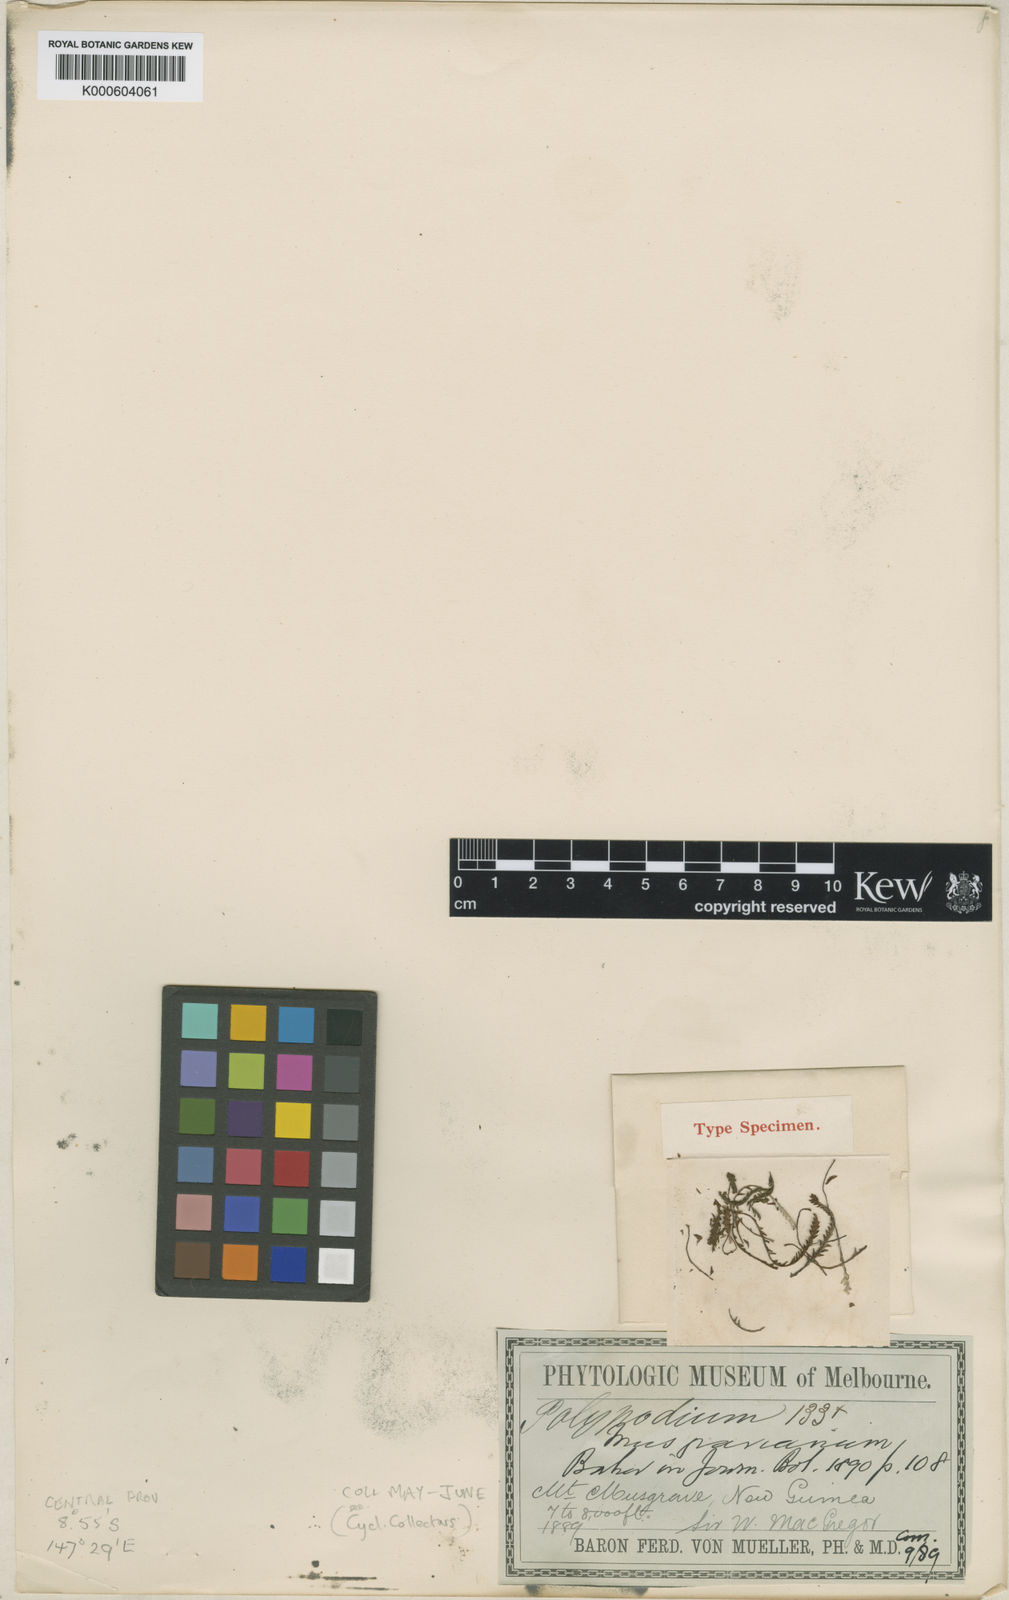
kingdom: Plantae
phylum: Tracheophyta
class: Polypodiopsida
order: Polypodiales
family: Polypodiaceae
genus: Chrysogrammitis
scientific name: Chrysogrammitis musgraviana
